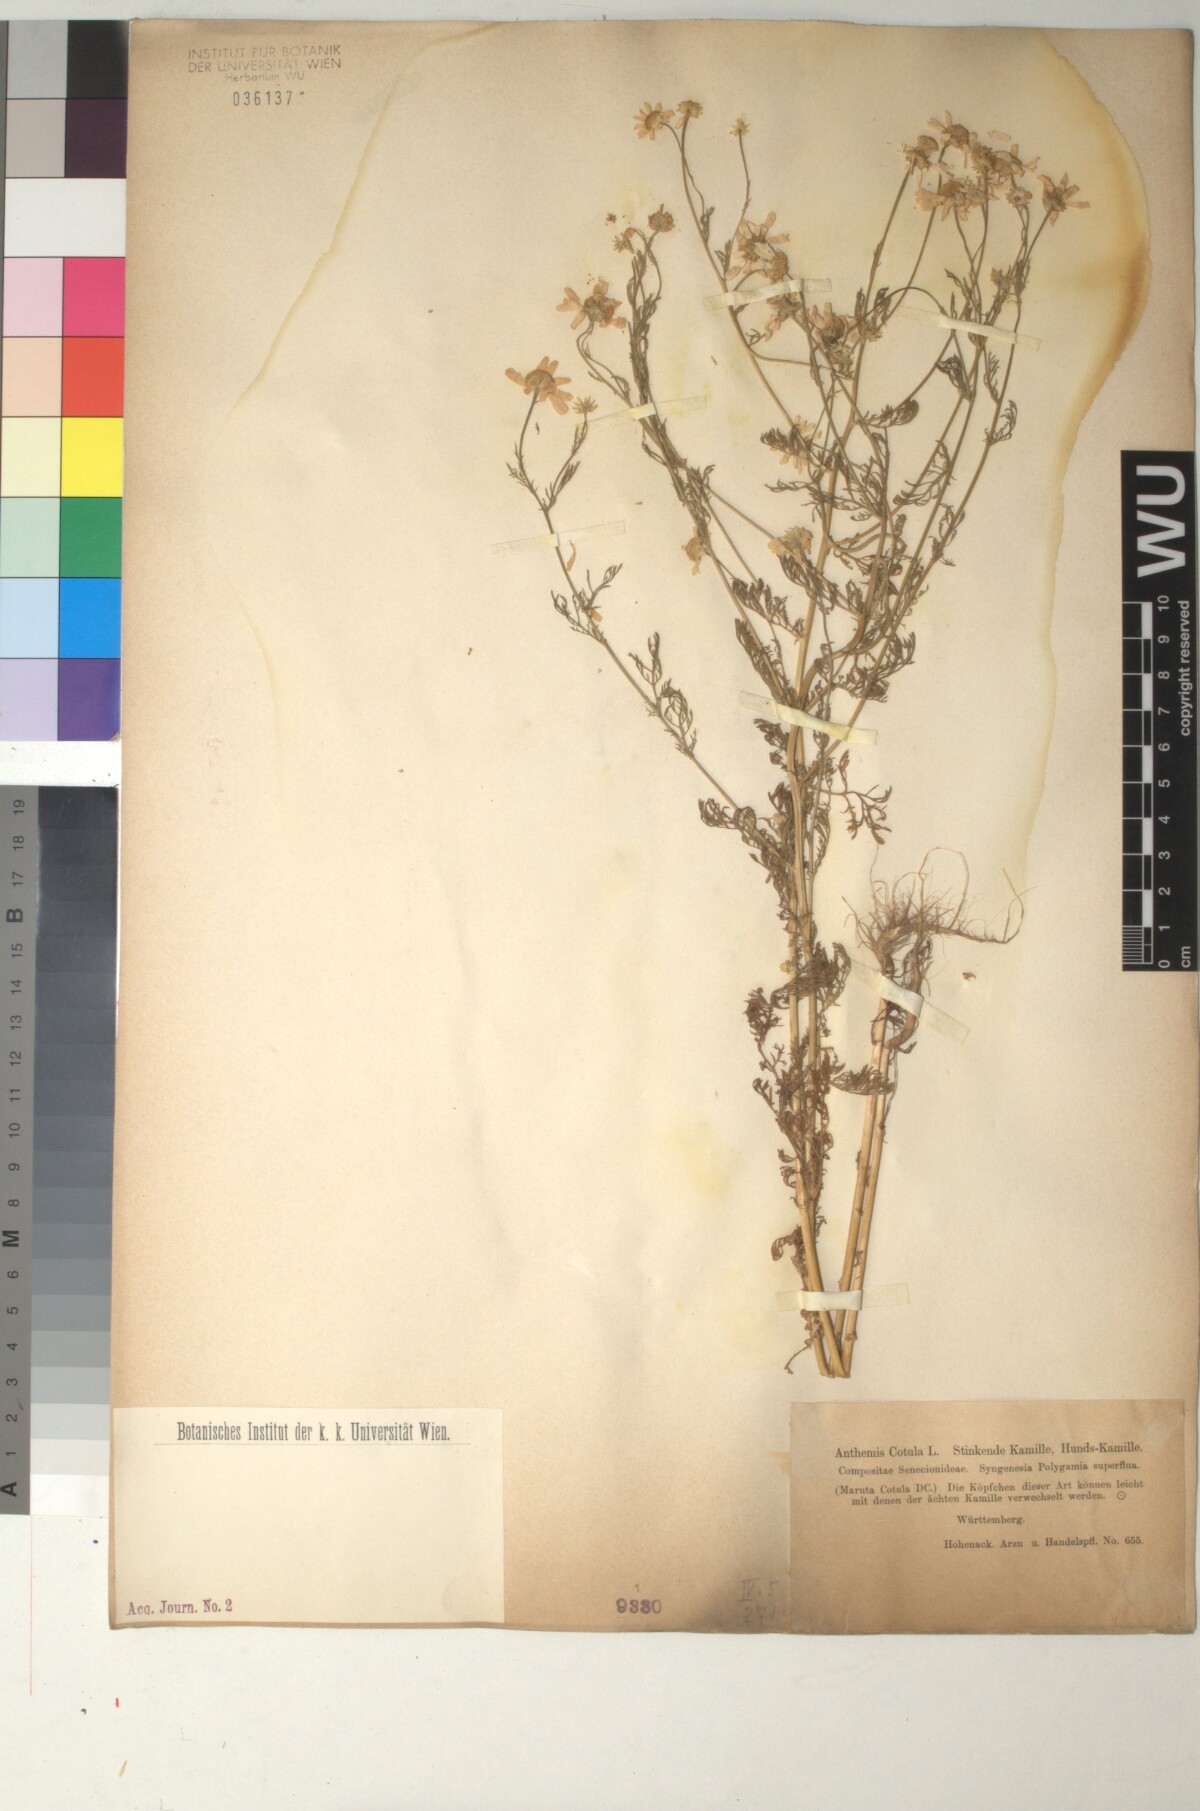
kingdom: Plantae
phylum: Tracheophyta
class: Magnoliopsida
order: Asterales
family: Asteraceae
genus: Anthemis
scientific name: Anthemis cotula
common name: Stinking chamomile
